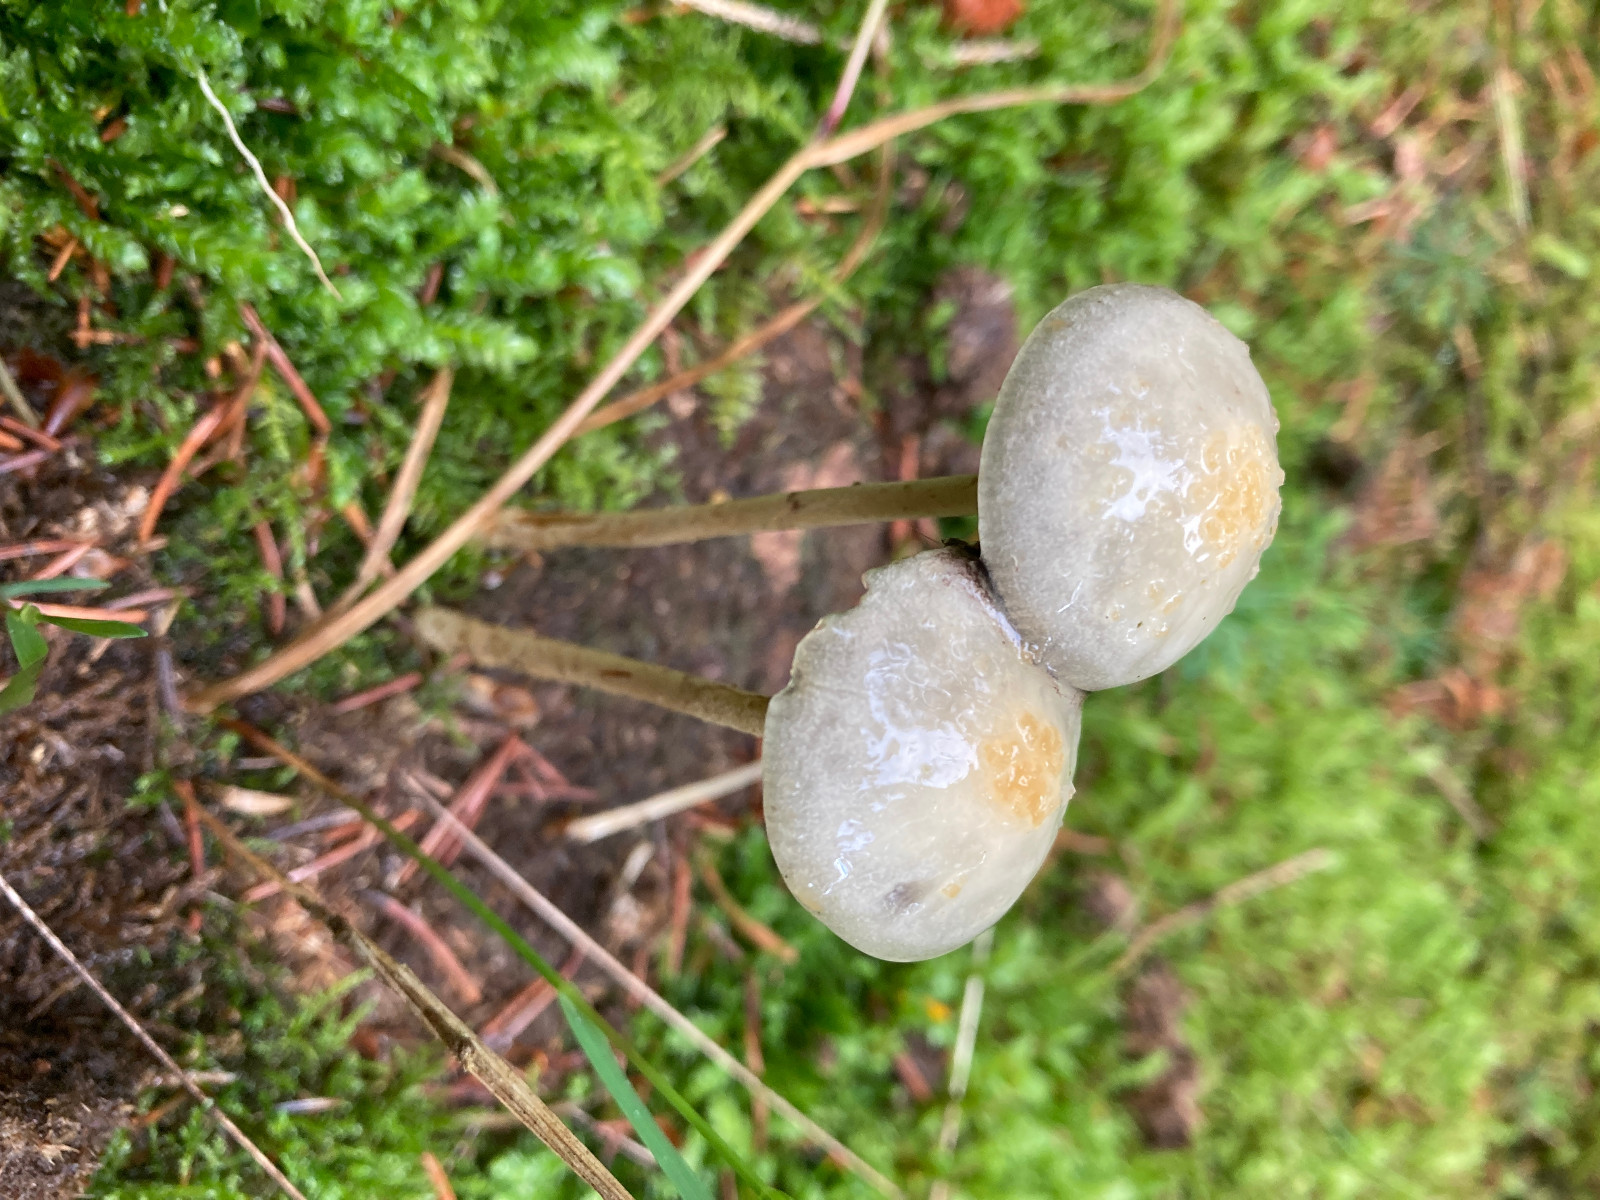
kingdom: Fungi
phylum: Basidiomycota
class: Agaricomycetes
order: Agaricales
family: Strophariaceae
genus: Protostropharia
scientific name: Protostropharia
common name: bredblad
